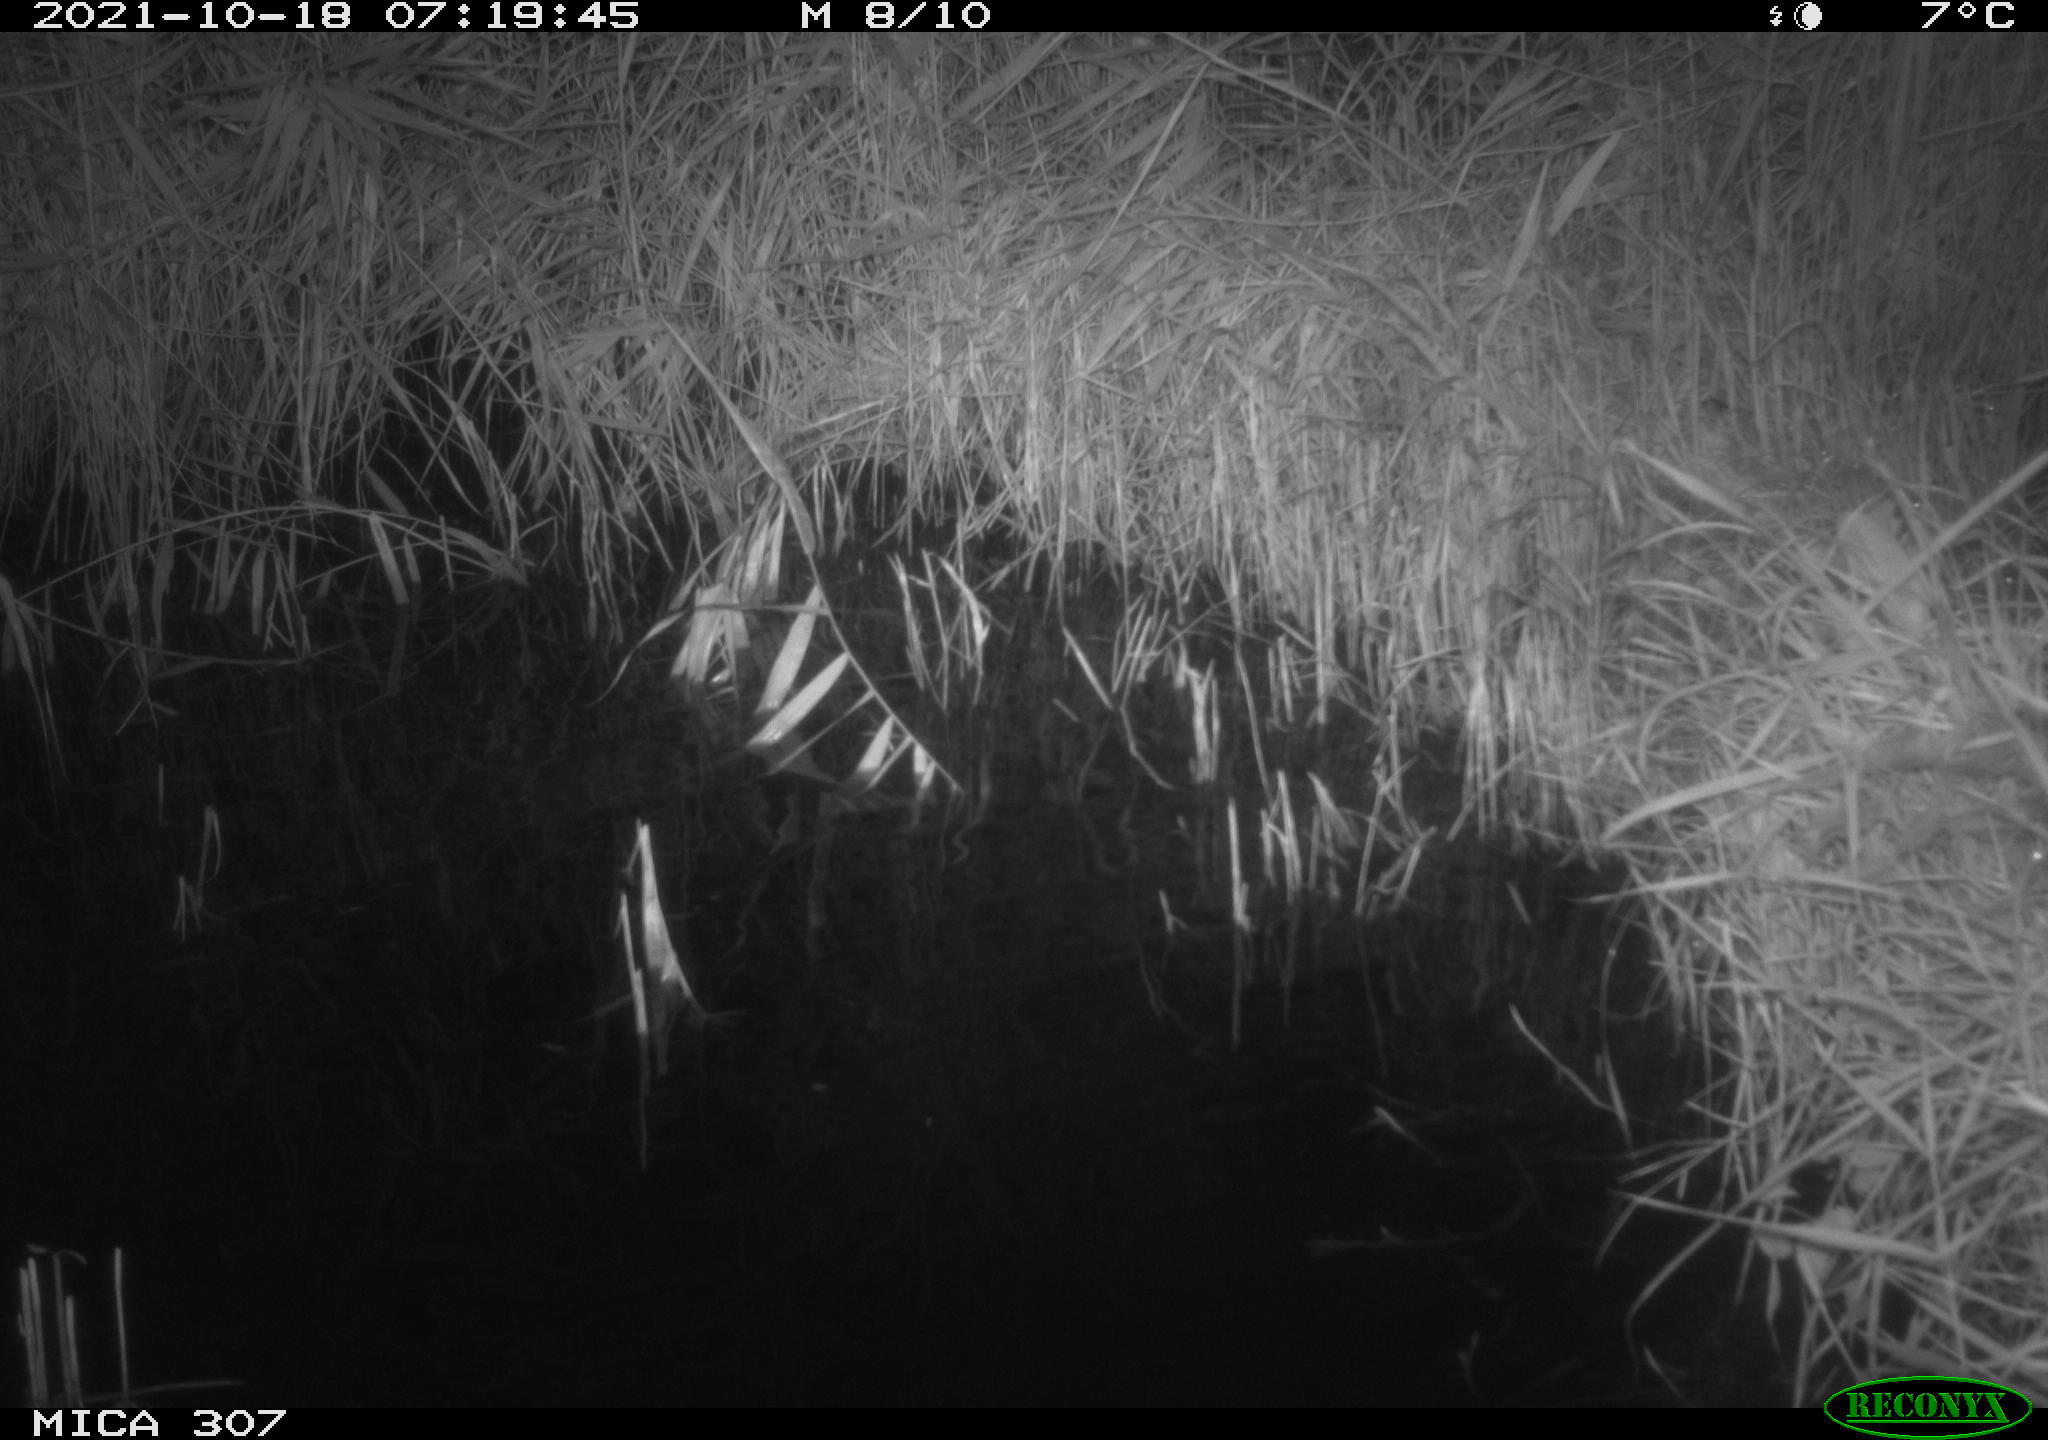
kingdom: Animalia
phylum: Chordata
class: Mammalia
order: Rodentia
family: Muridae
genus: Rattus
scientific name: Rattus norvegicus
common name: Brown rat
